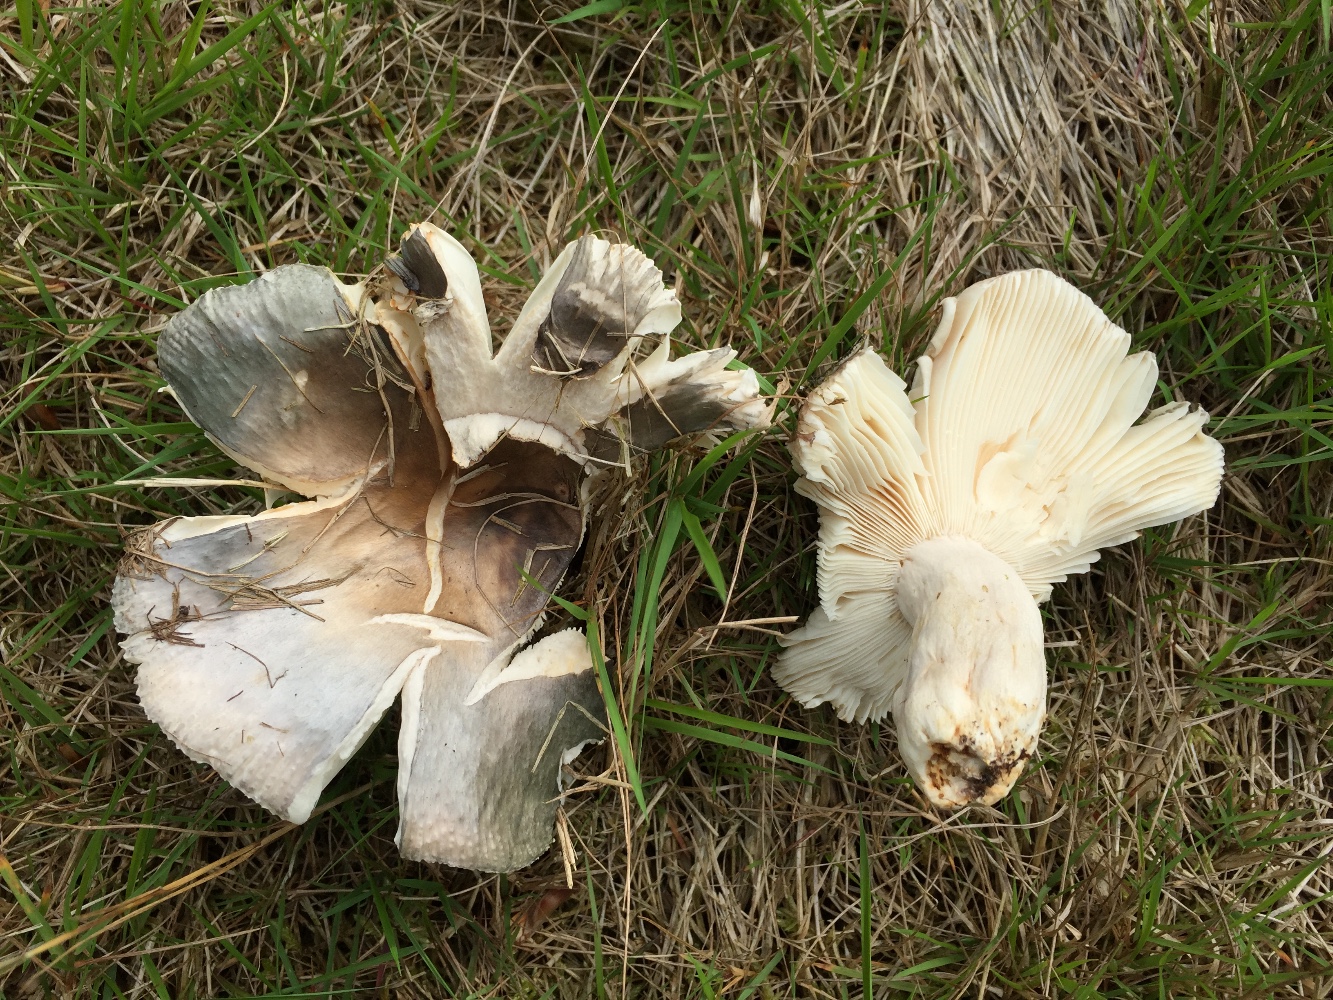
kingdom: Fungi
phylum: Basidiomycota
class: Agaricomycetes
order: Russulales
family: Russulaceae
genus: Russula
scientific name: Russula
